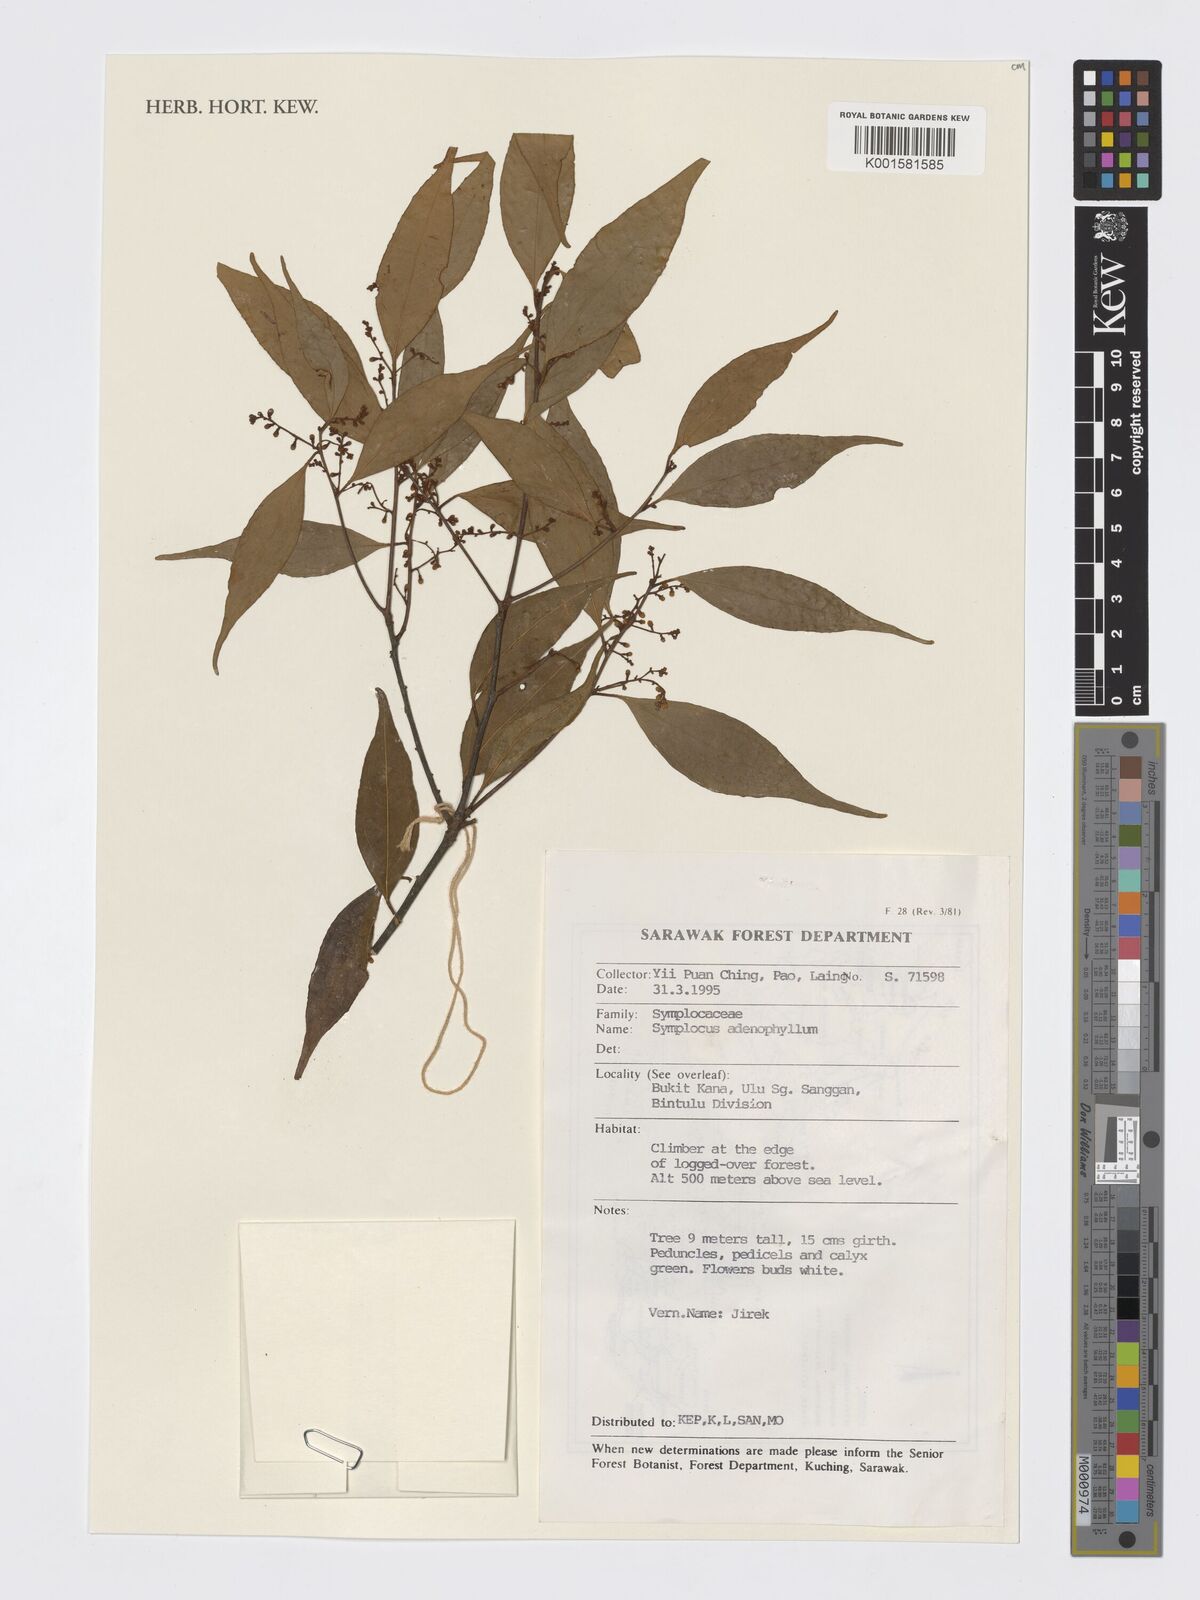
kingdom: Plantae
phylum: Tracheophyta
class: Magnoliopsida
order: Ericales
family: Symplocaceae
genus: Symplocos
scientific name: Symplocos adenophylla
